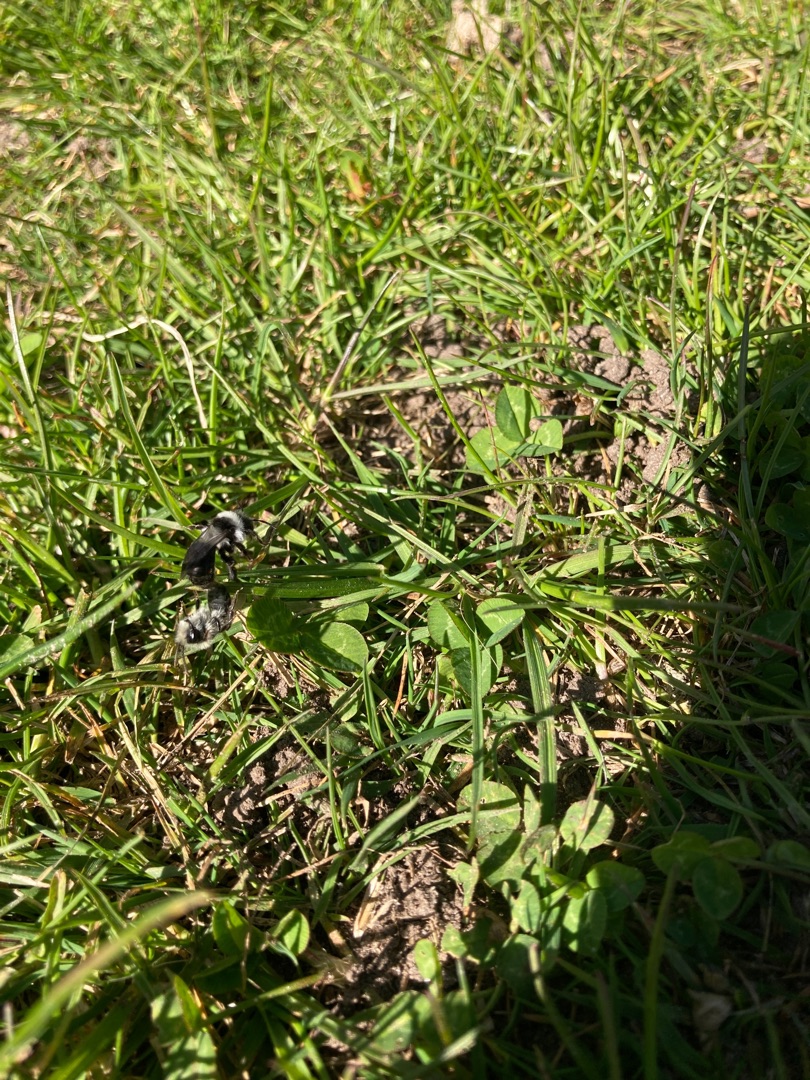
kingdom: Animalia
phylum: Arthropoda
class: Insecta
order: Hymenoptera
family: Andrenidae
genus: Andrena
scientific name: Andrena cineraria
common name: Sorthvid jordbi
